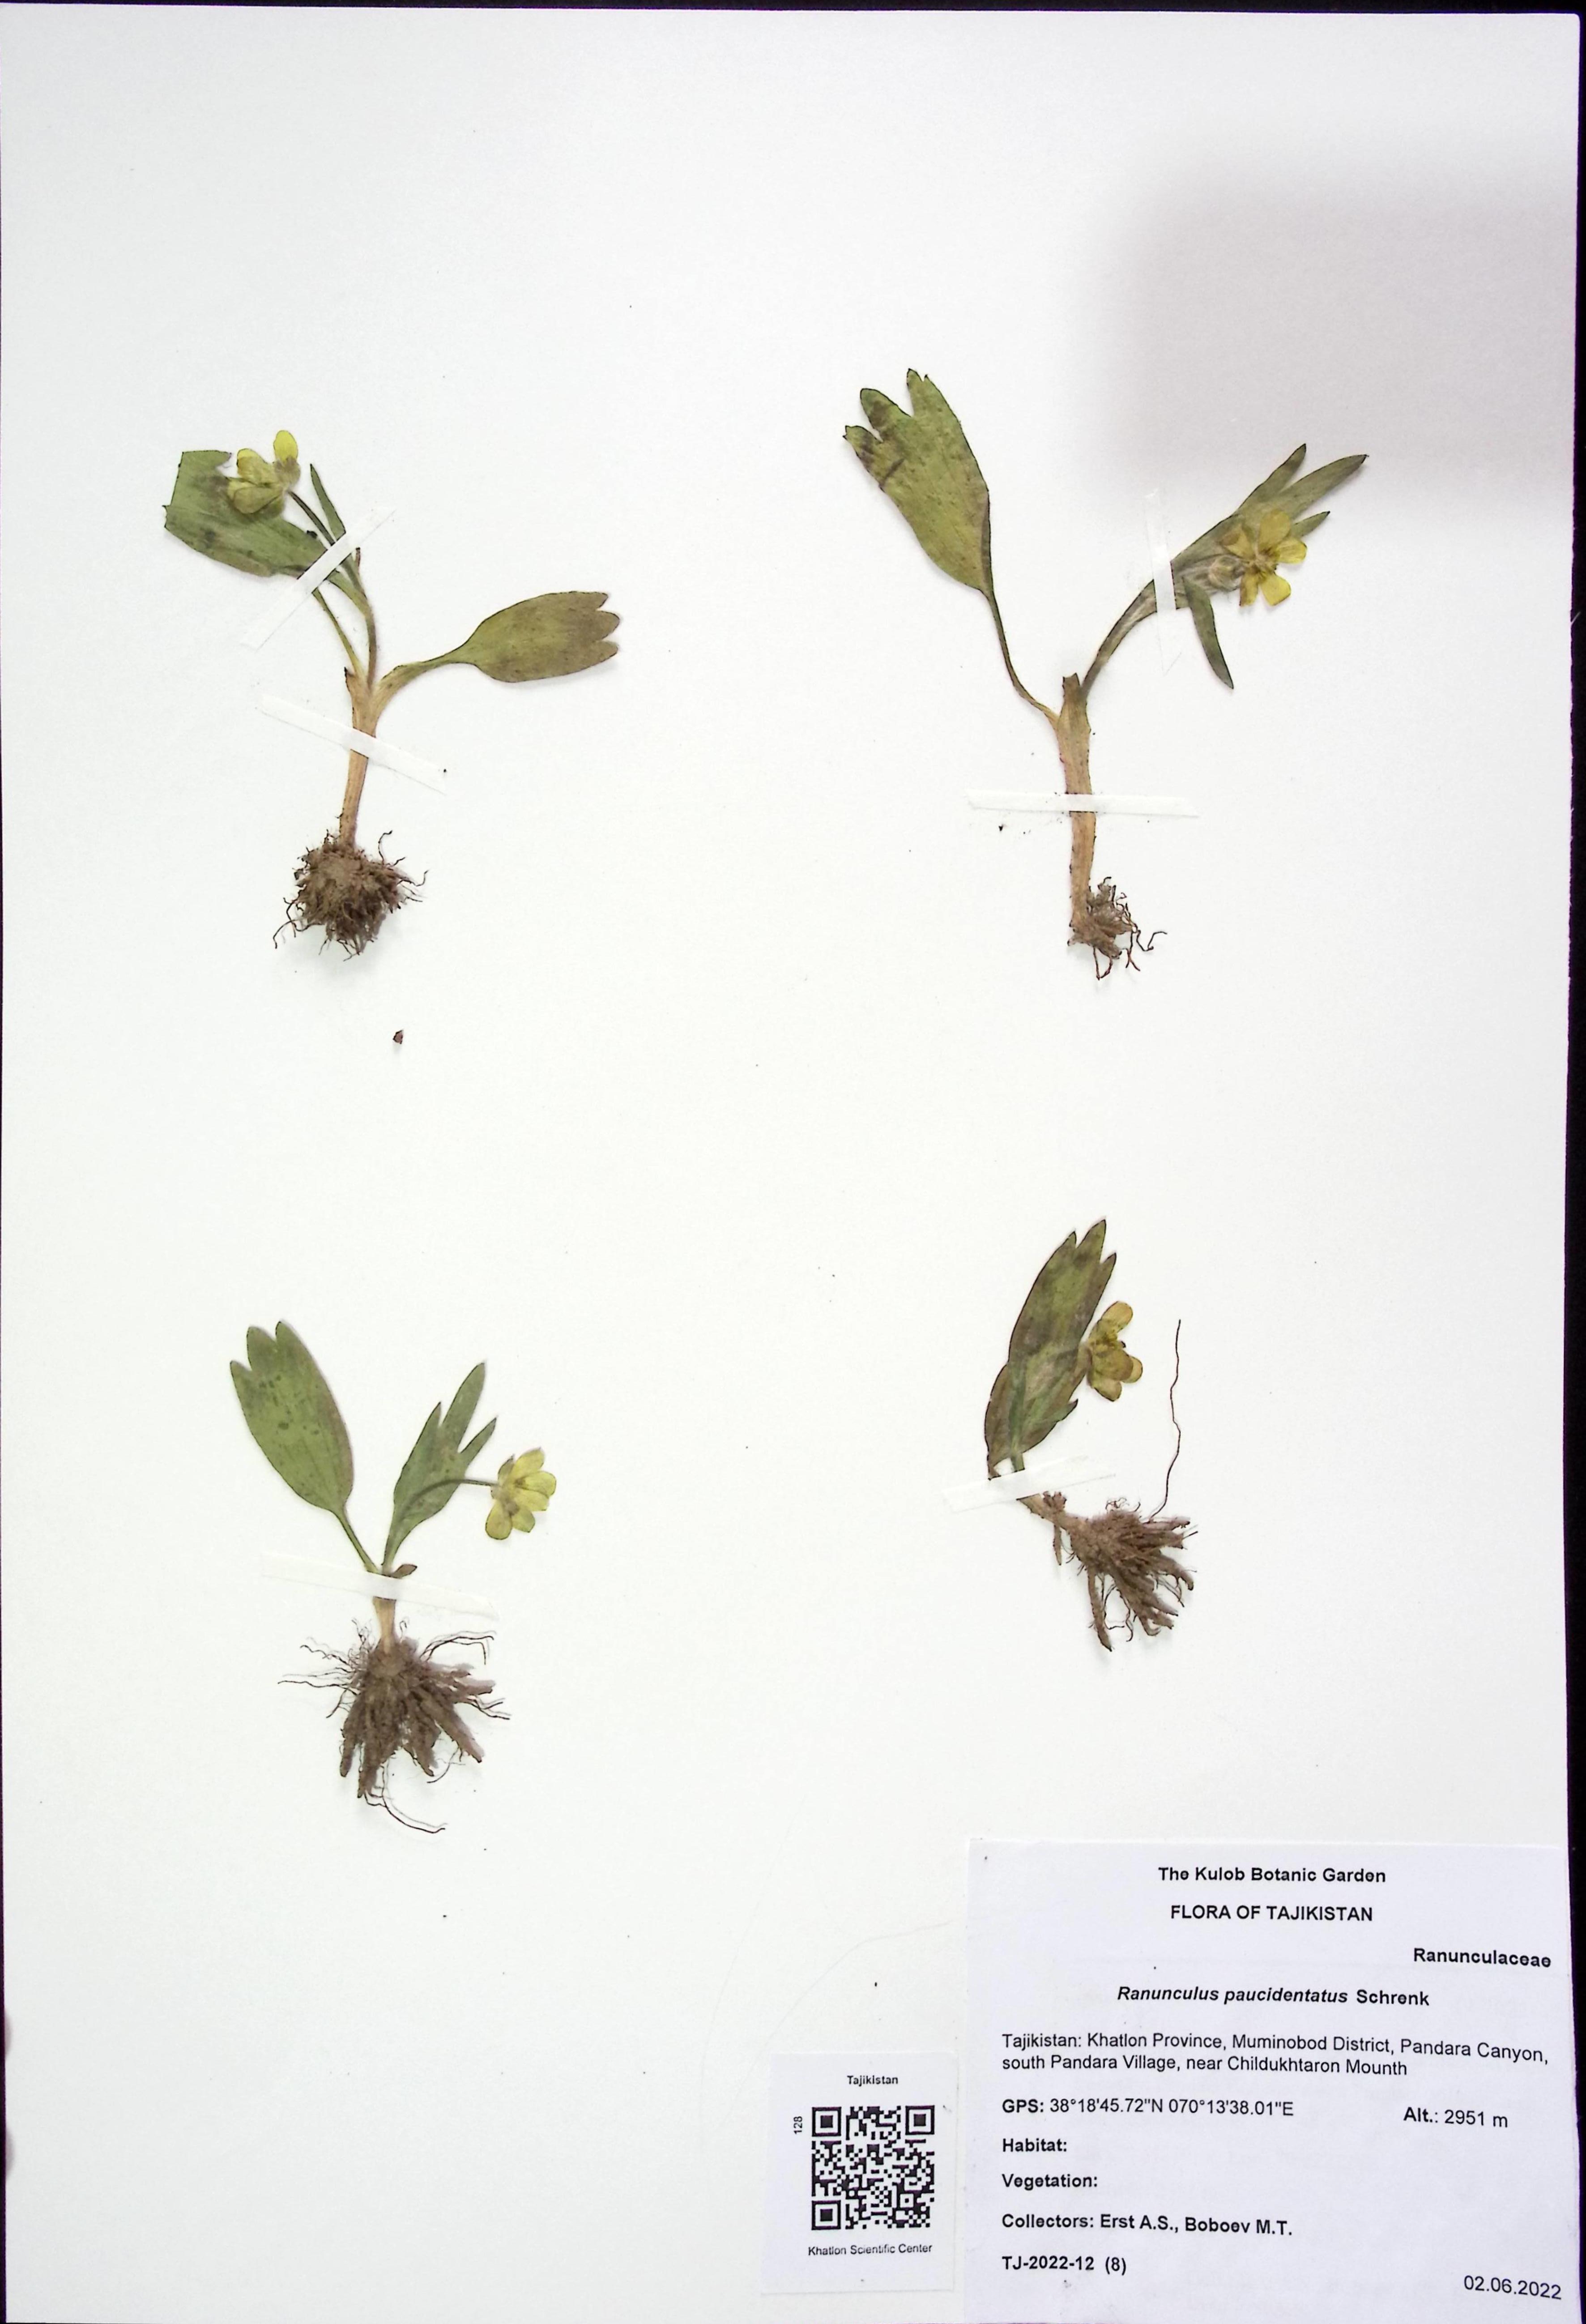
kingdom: Plantae
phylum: Tracheophyta
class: Magnoliopsida
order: Ranunculales
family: Ranunculaceae
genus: Ranunculus
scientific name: Ranunculus paucidentatus
